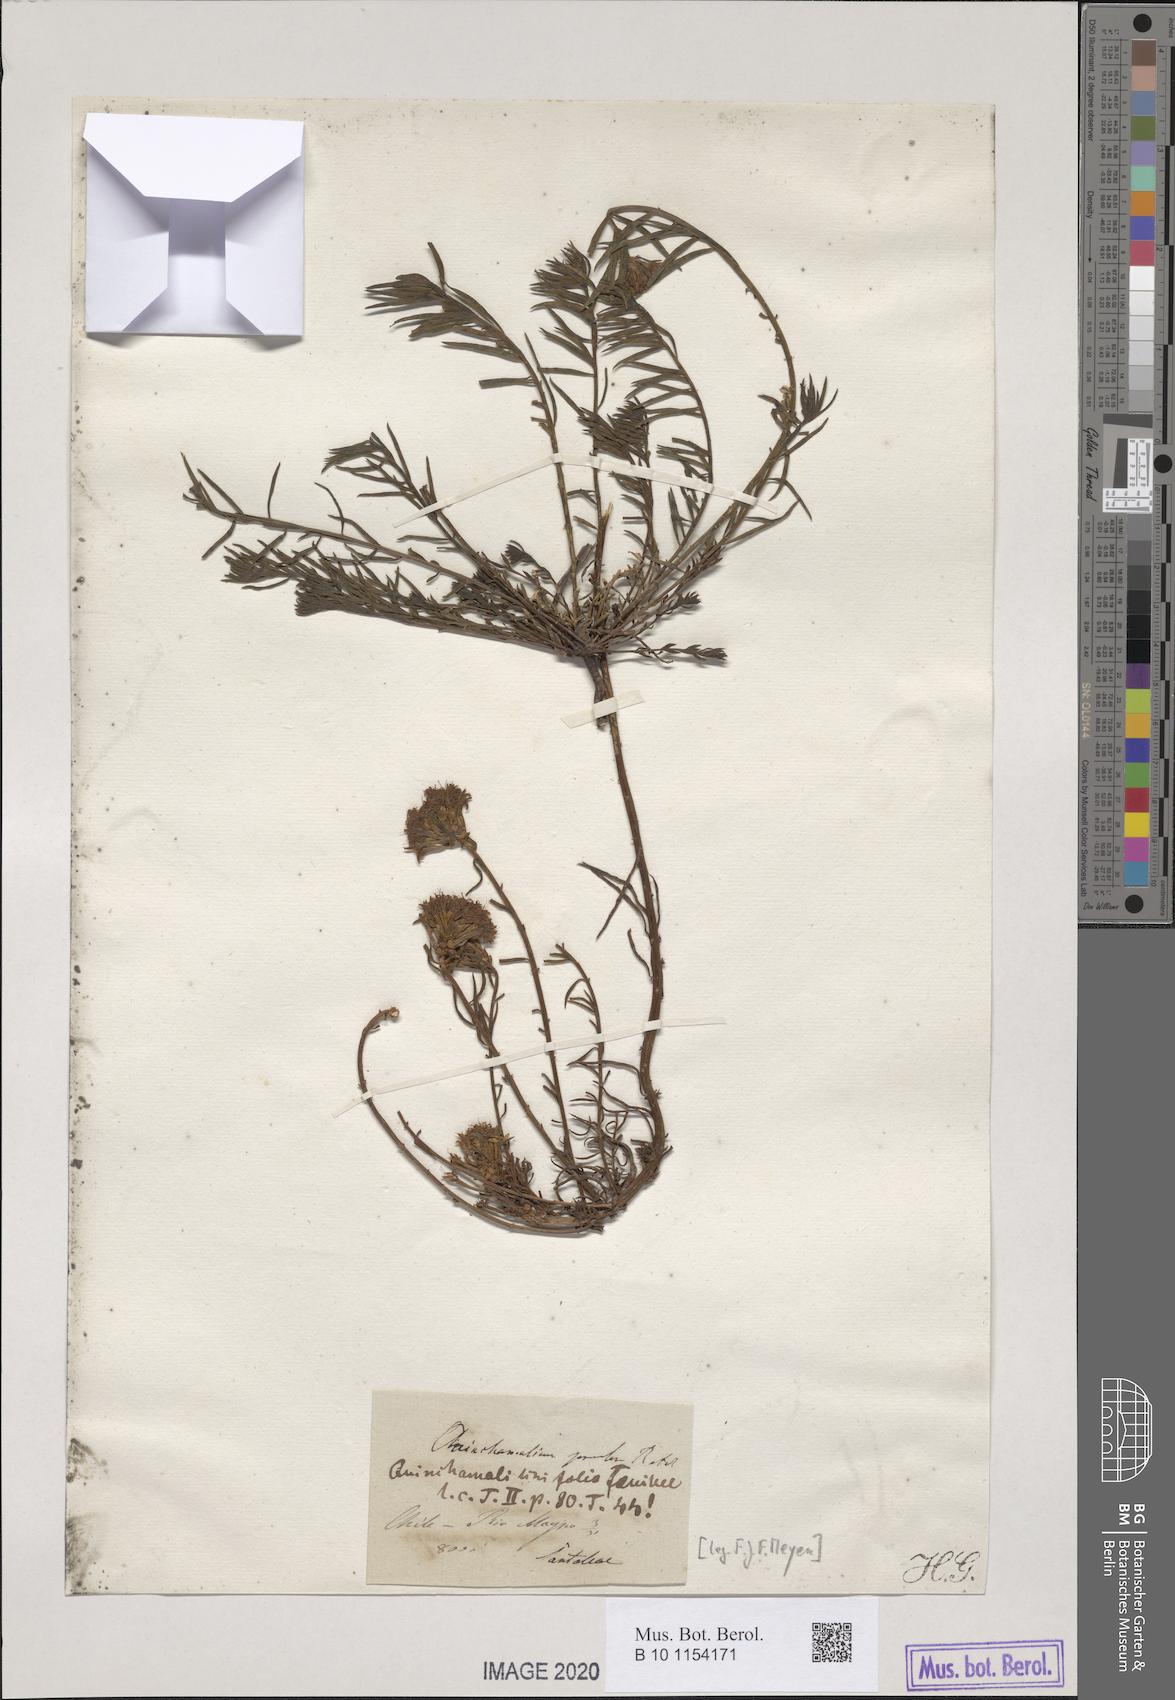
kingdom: Plantae
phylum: Tracheophyta
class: Magnoliopsida
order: Santalales
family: Schoepfiaceae
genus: Quinchamalium
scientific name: Quinchamalium chilense
